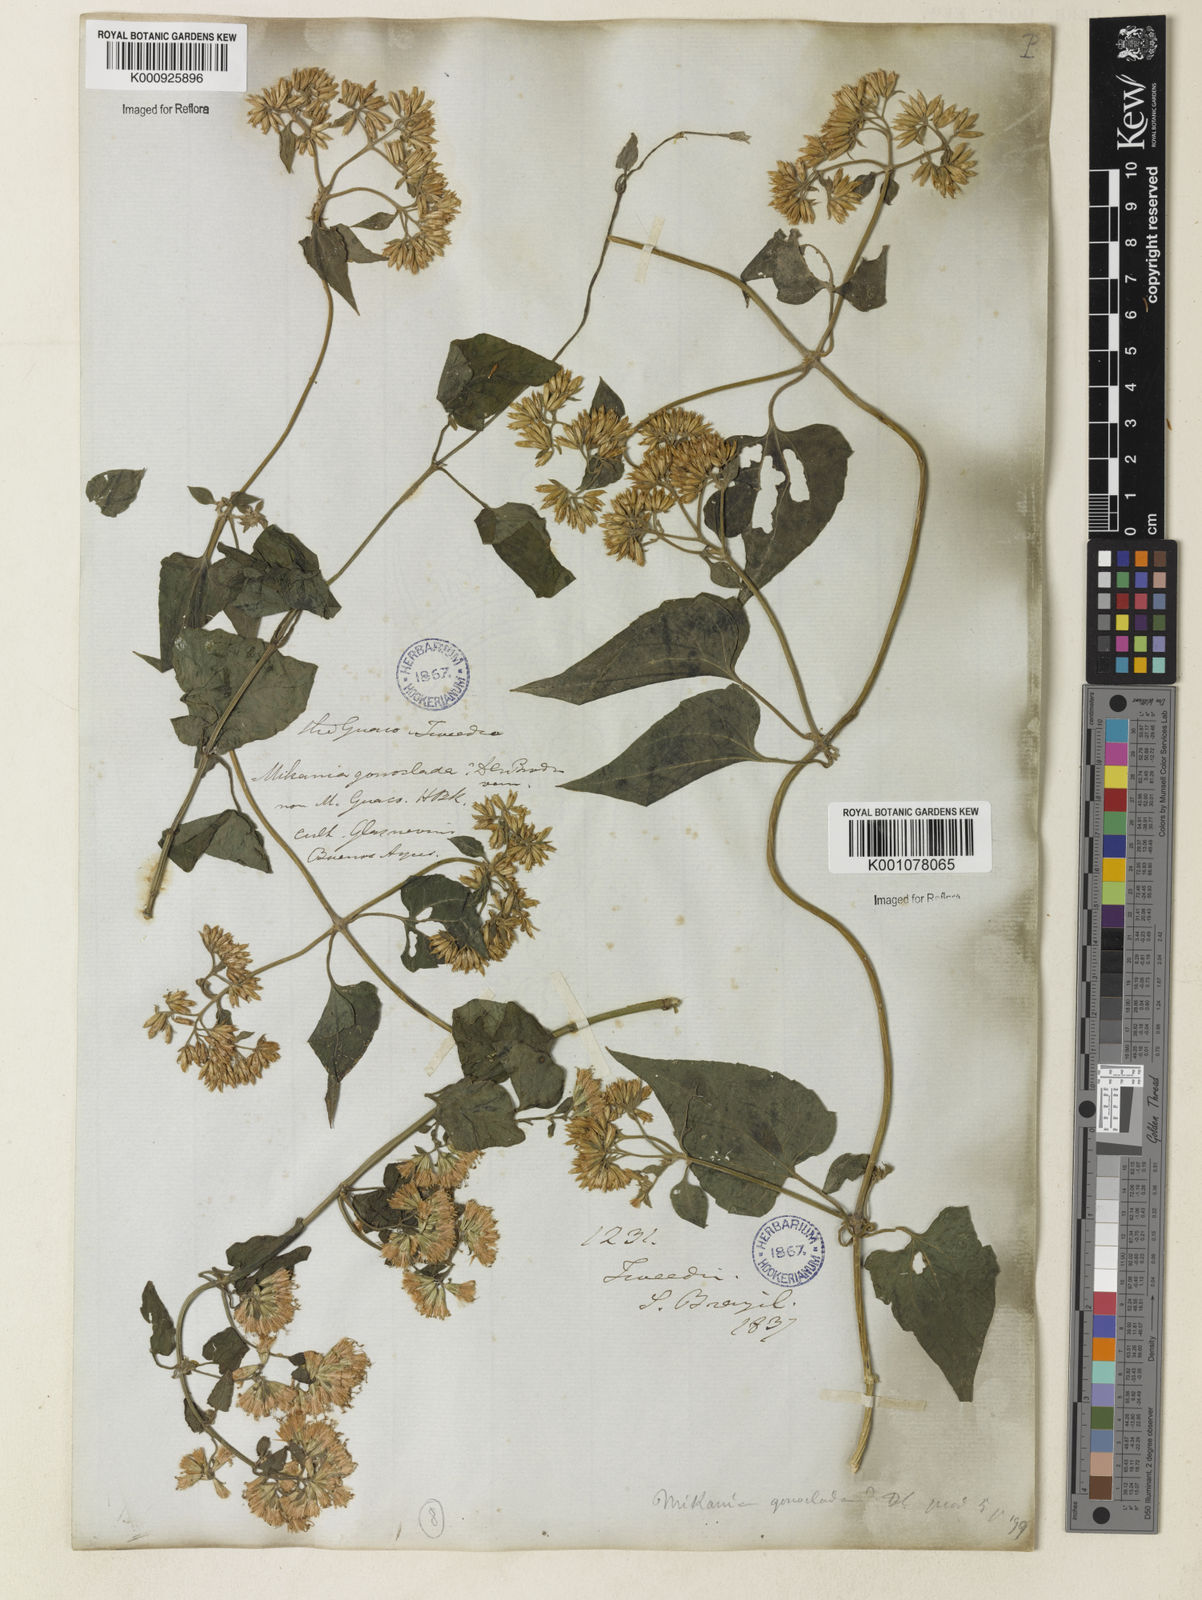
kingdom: Plantae
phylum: Tracheophyta
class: Magnoliopsida
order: Asterales
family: Asteraceae
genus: Mikania
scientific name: Mikania
